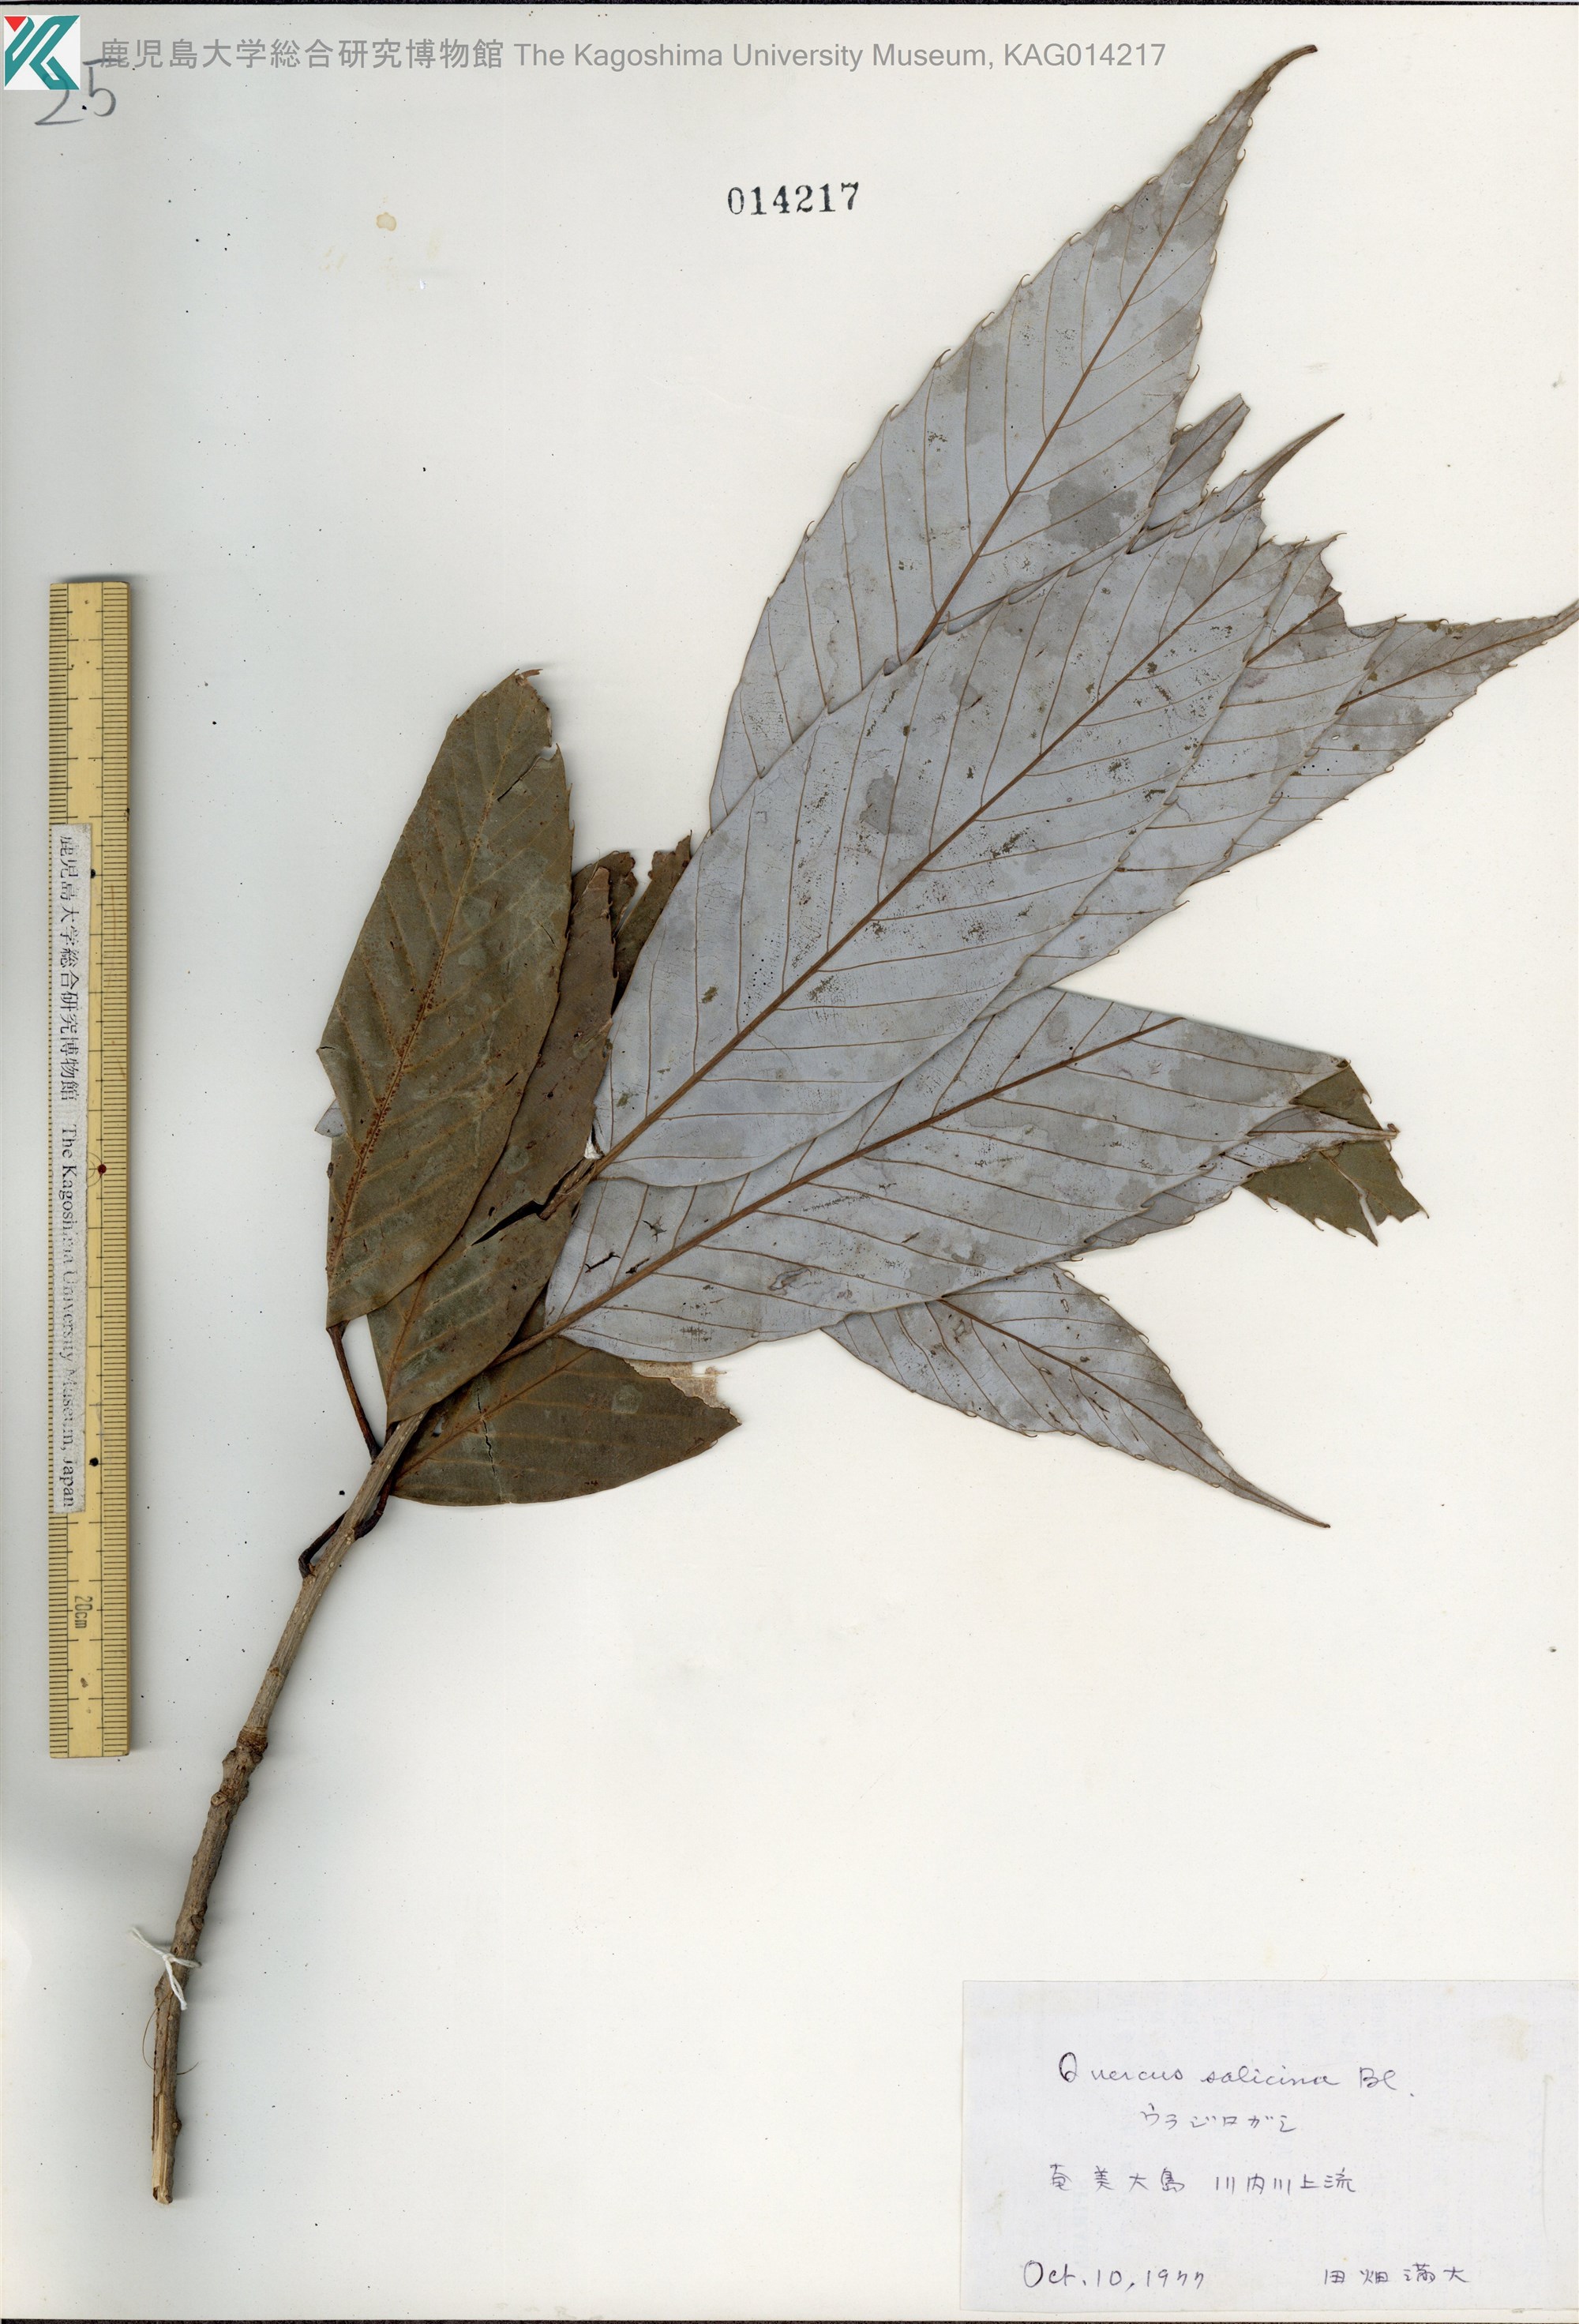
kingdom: Plantae
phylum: Tracheophyta
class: Magnoliopsida
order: Fagales
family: Fagaceae
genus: Quercus
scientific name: Quercus salicina
